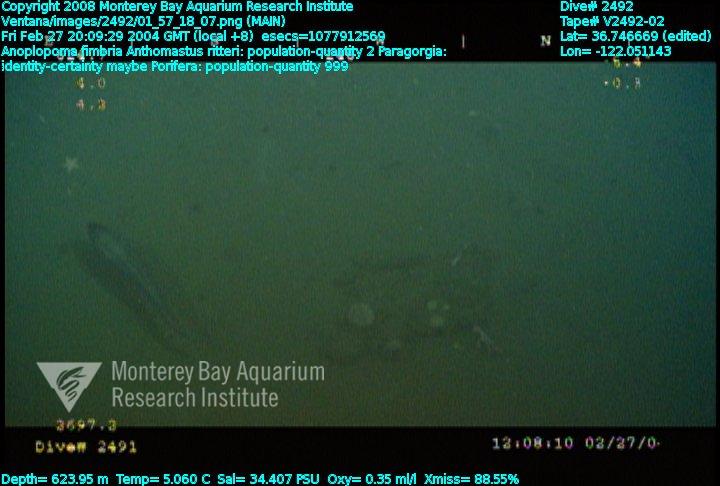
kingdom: Animalia
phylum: Porifera
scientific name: Porifera
